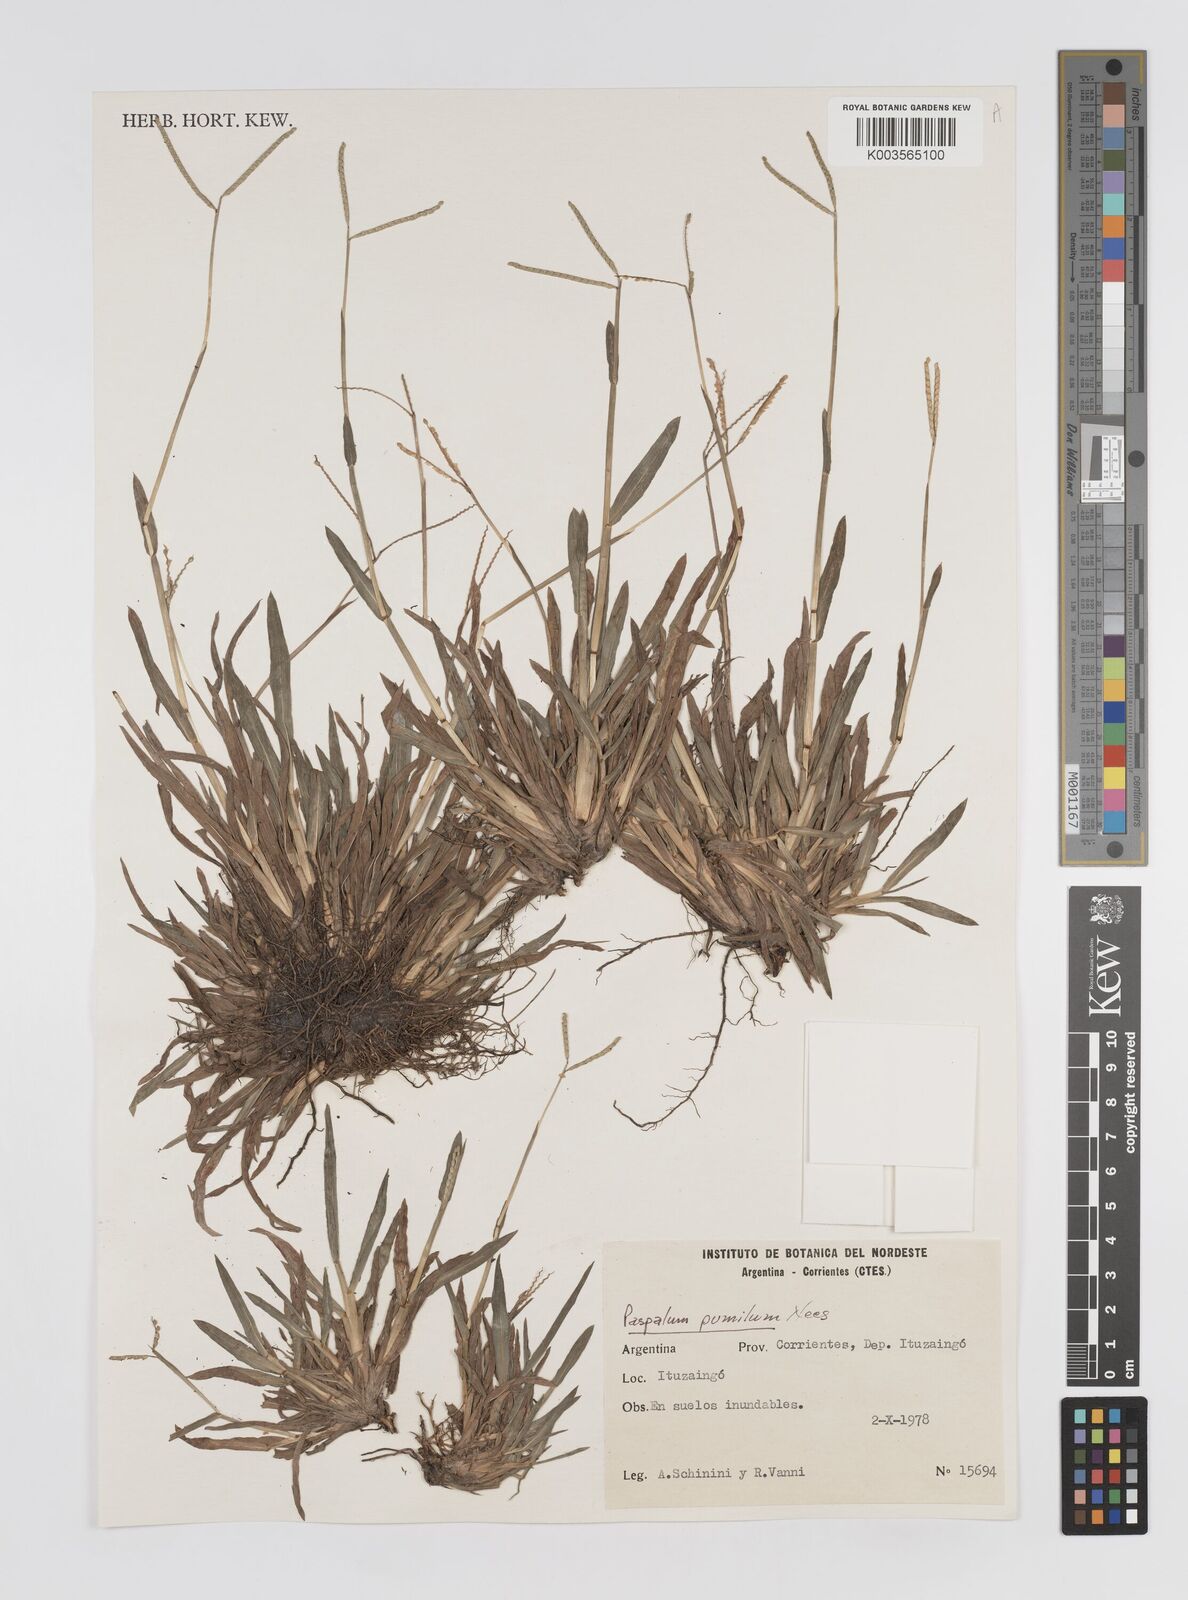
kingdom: Plantae
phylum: Tracheophyta
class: Liliopsida
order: Poales
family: Poaceae
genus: Paspalum
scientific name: Paspalum pumilum
